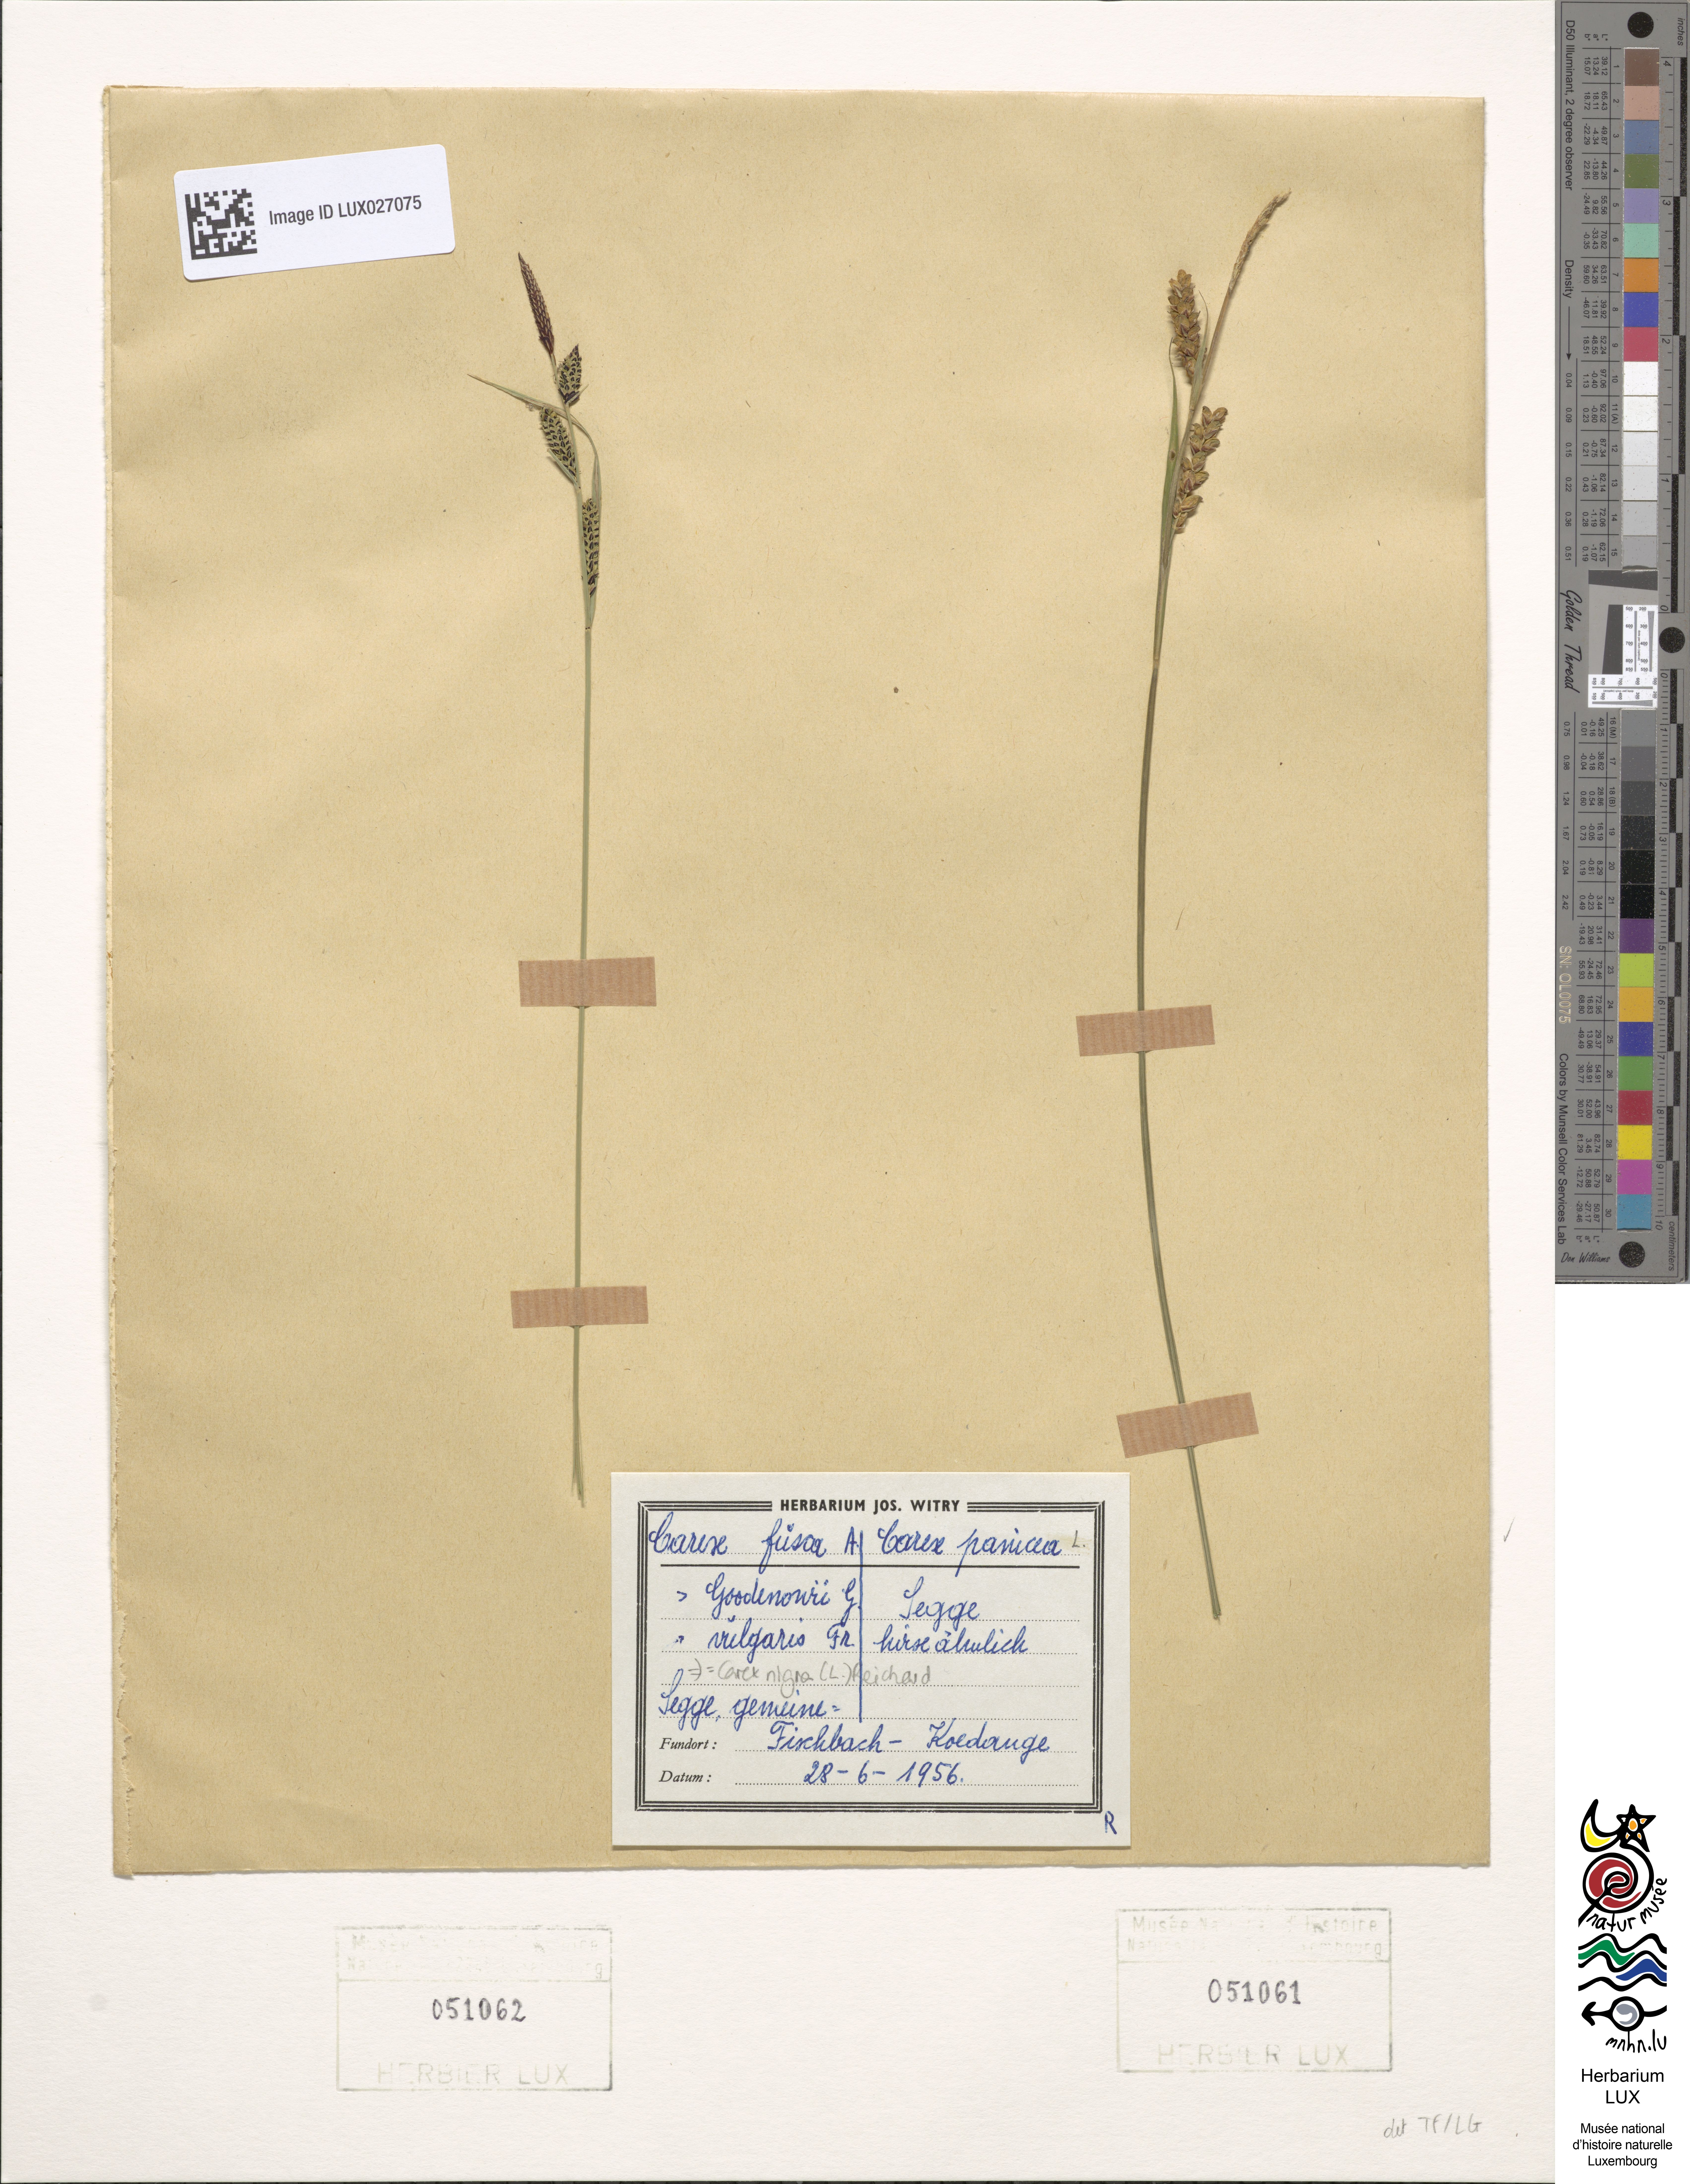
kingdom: Plantae
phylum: Tracheophyta
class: Liliopsida
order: Poales
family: Cyperaceae
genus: Carex
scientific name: Carex panicea
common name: Carnation sedge
